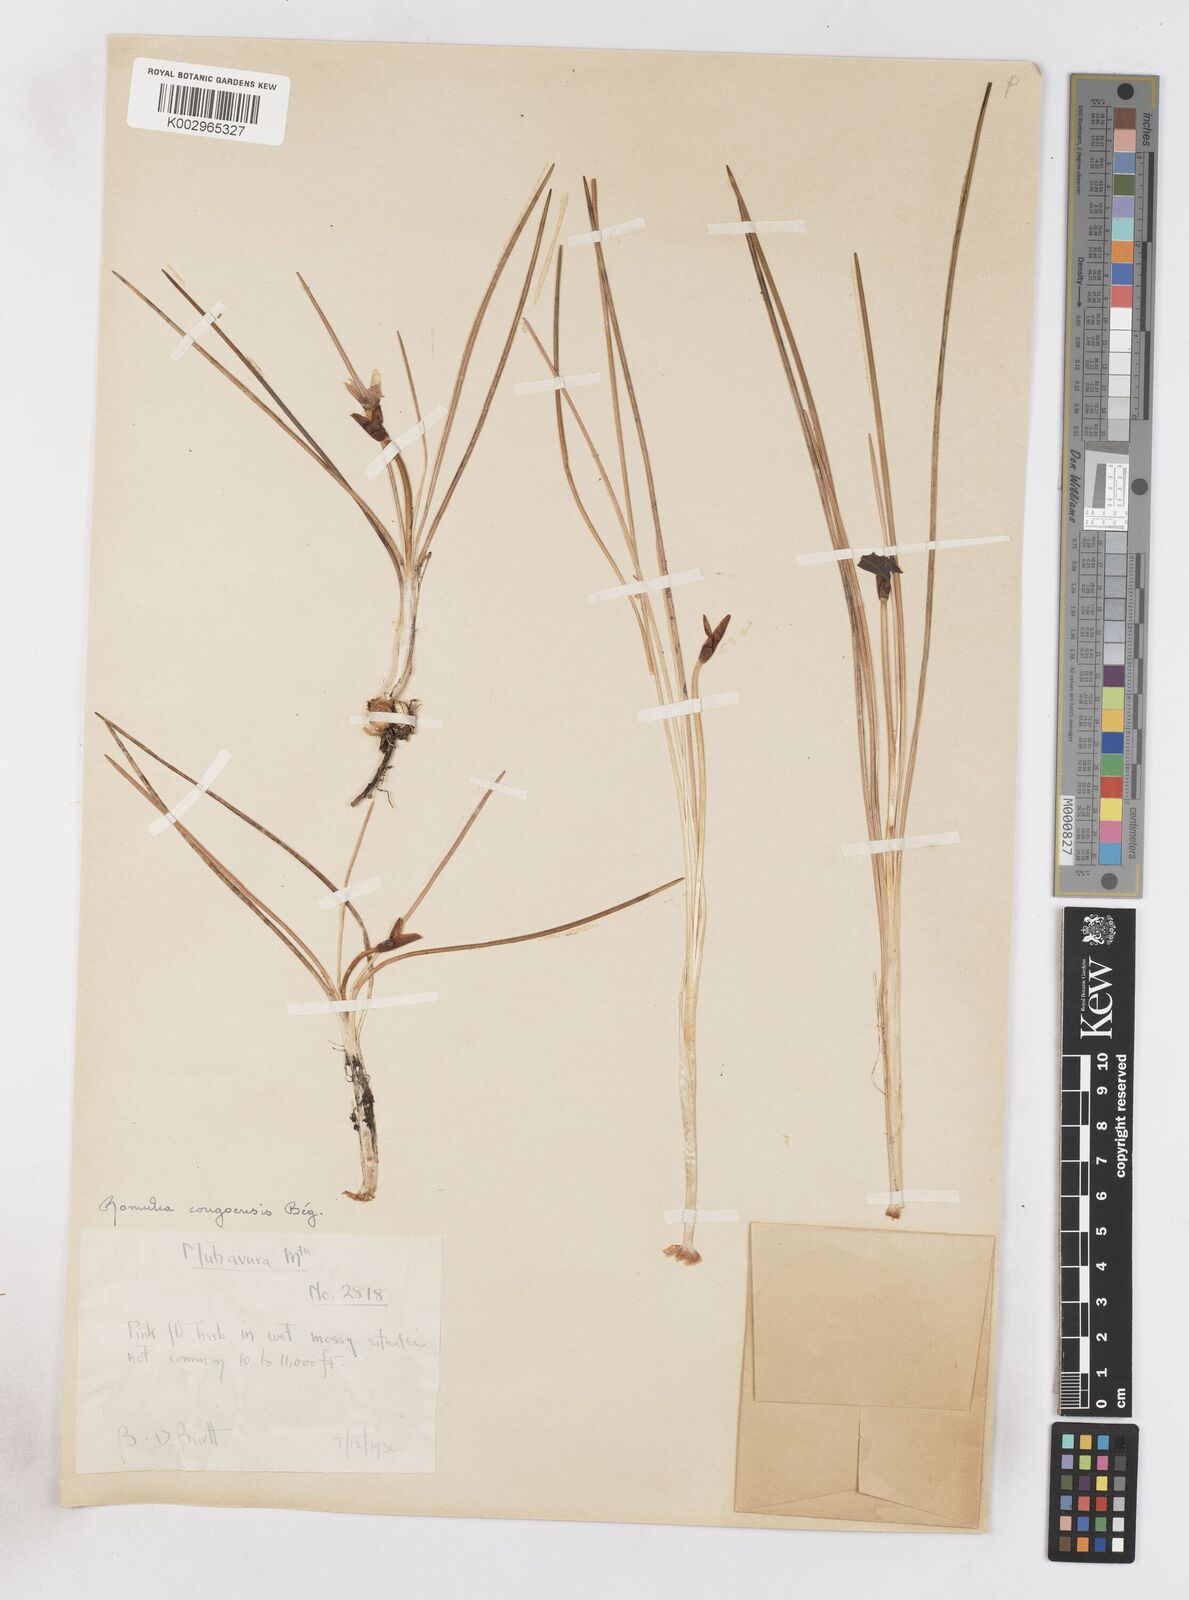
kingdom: Plantae
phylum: Tracheophyta
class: Liliopsida
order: Asparagales
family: Iridaceae
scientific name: Iridaceae
